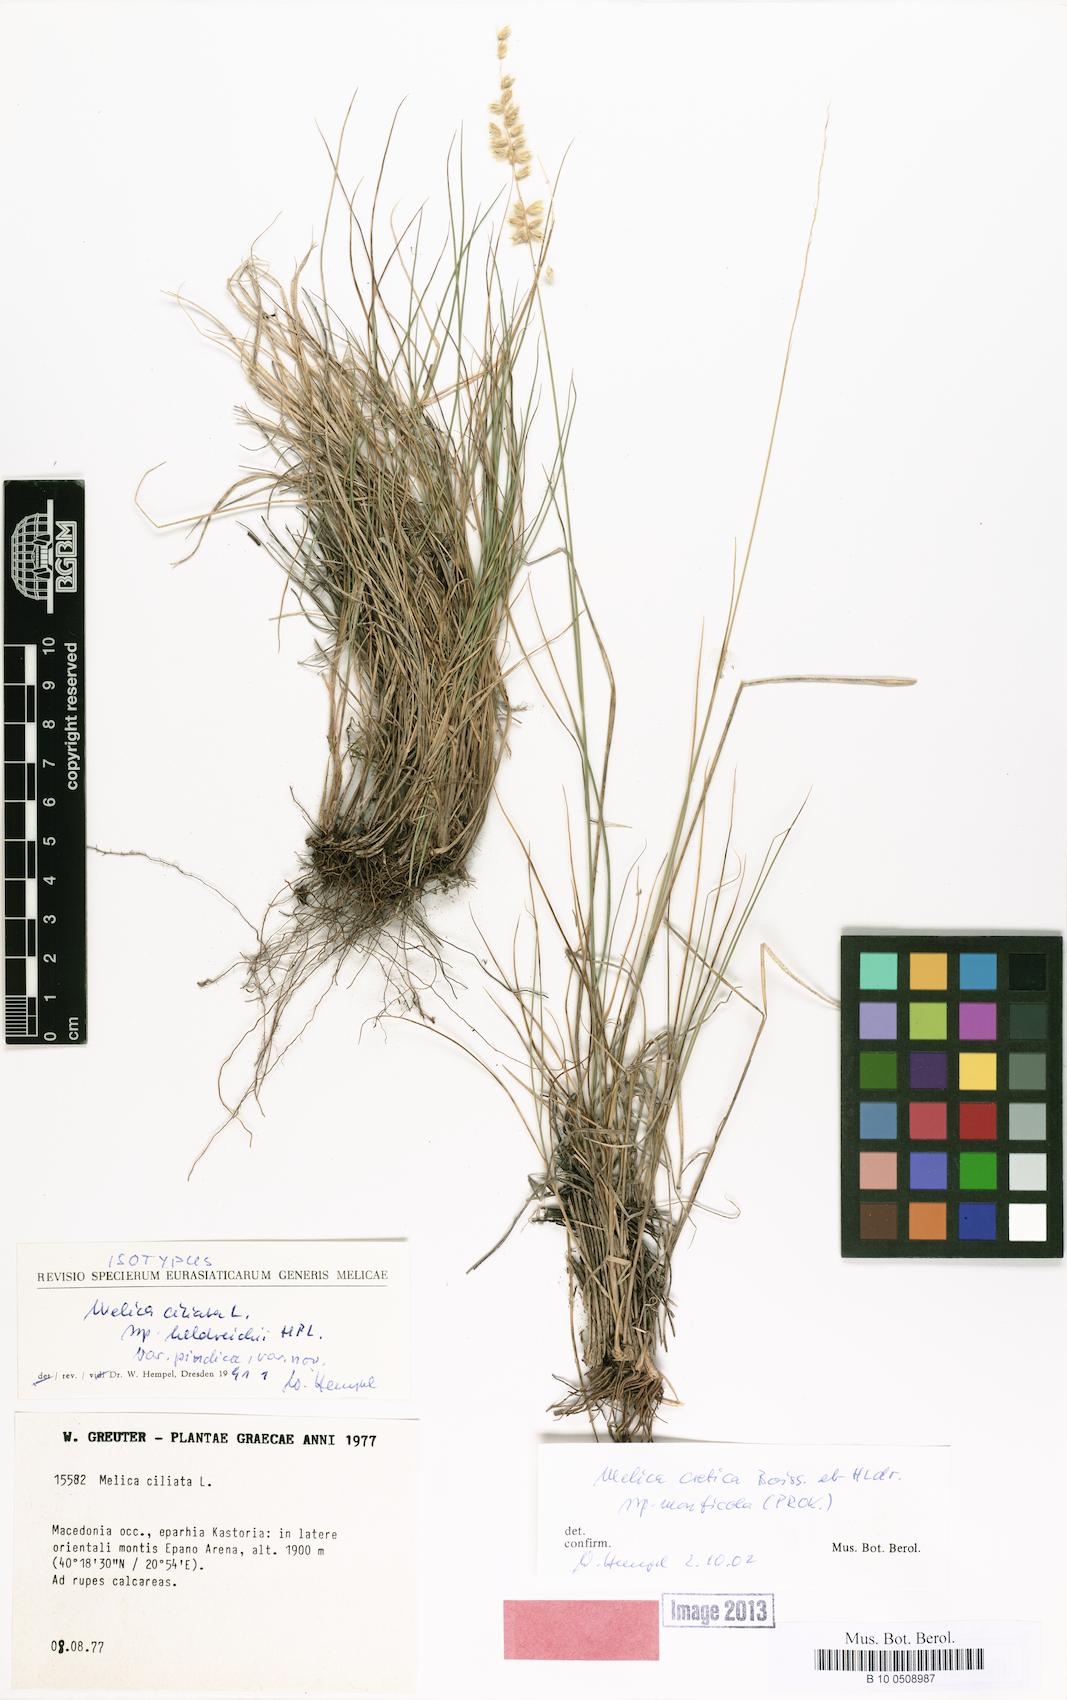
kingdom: Plantae
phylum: Tracheophyta
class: Liliopsida
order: Poales
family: Poaceae
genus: Melica
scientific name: Melica ciliata
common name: Hairy melicgrass
